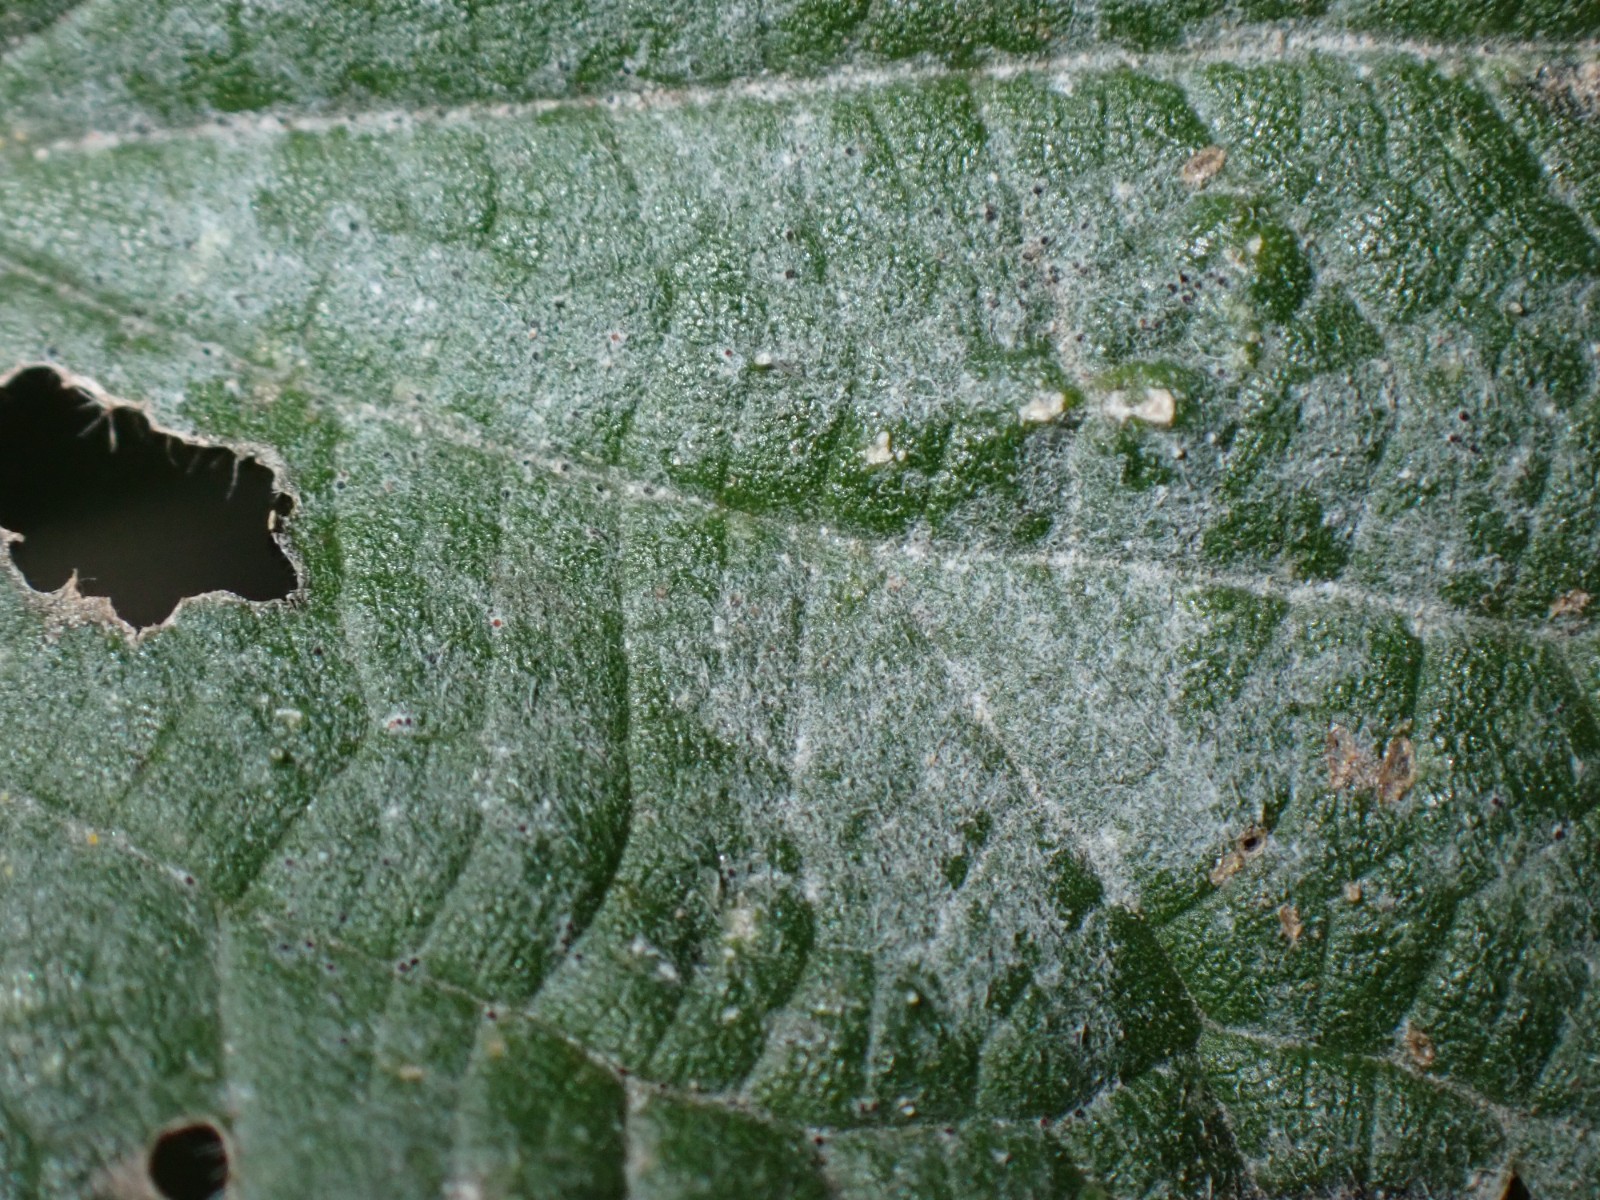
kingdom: Fungi
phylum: Ascomycota
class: Leotiomycetes
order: Helotiales
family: Erysiphaceae
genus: Erysiphe
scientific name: Erysiphe urticae
